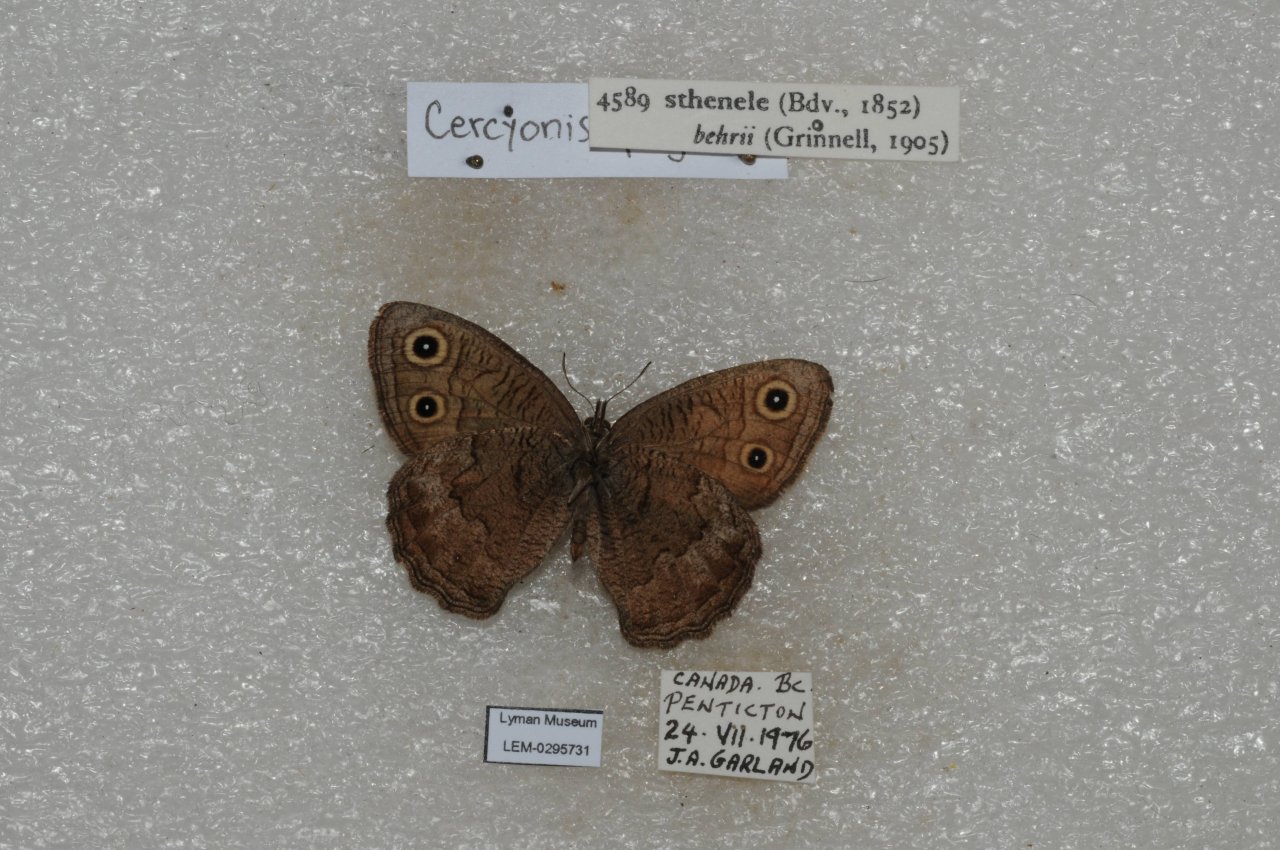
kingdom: Animalia
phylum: Arthropoda
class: Insecta
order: Lepidoptera
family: Nymphalidae
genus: Cercyonis
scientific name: Cercyonis sthenele
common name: Great Basin Wood-Nymph
